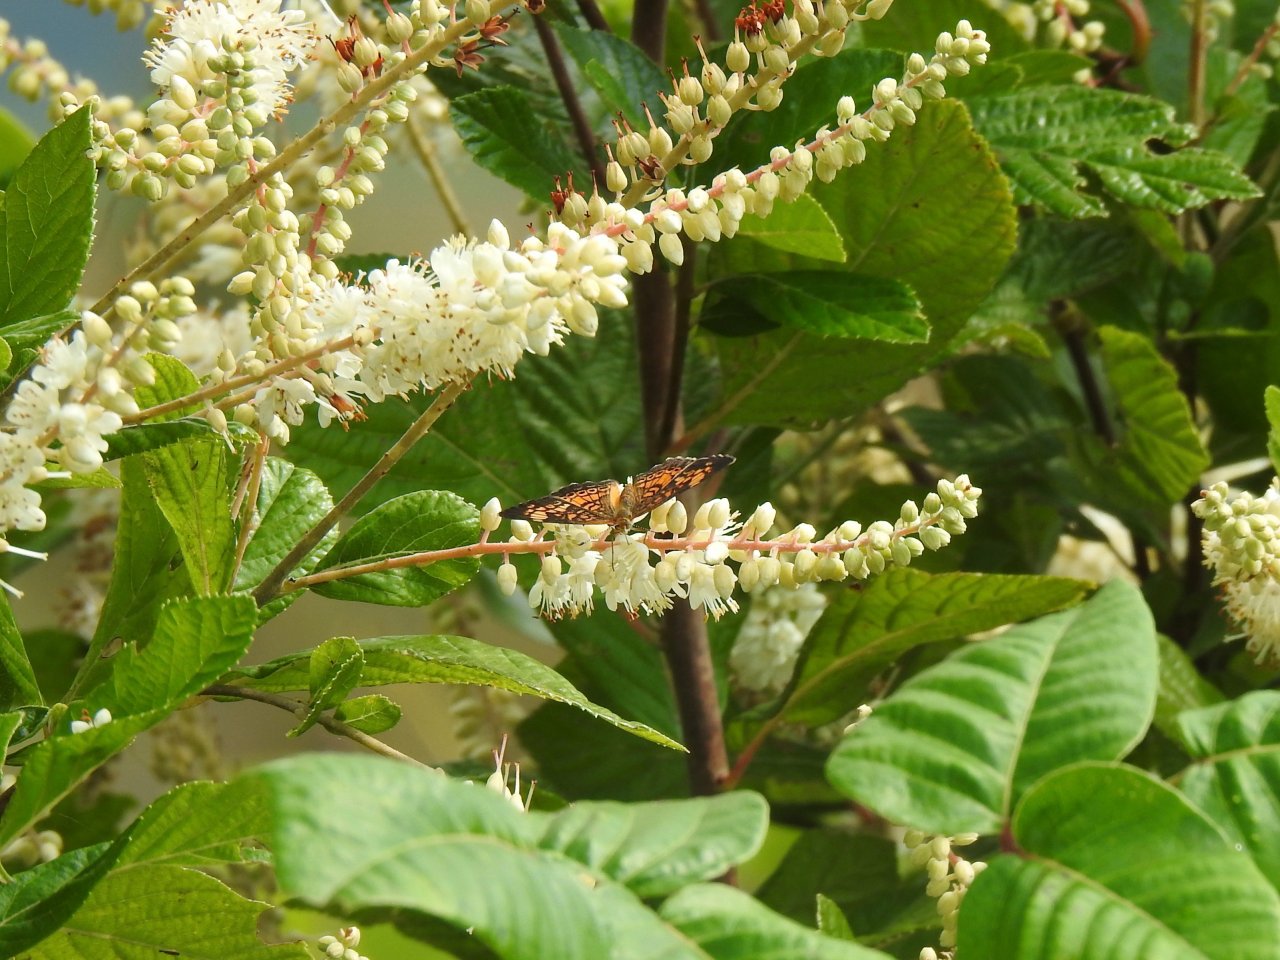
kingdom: Animalia
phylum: Arthropoda
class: Insecta
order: Lepidoptera
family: Nymphalidae
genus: Phyciodes
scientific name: Phyciodes tharos
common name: Pearl Crescent
